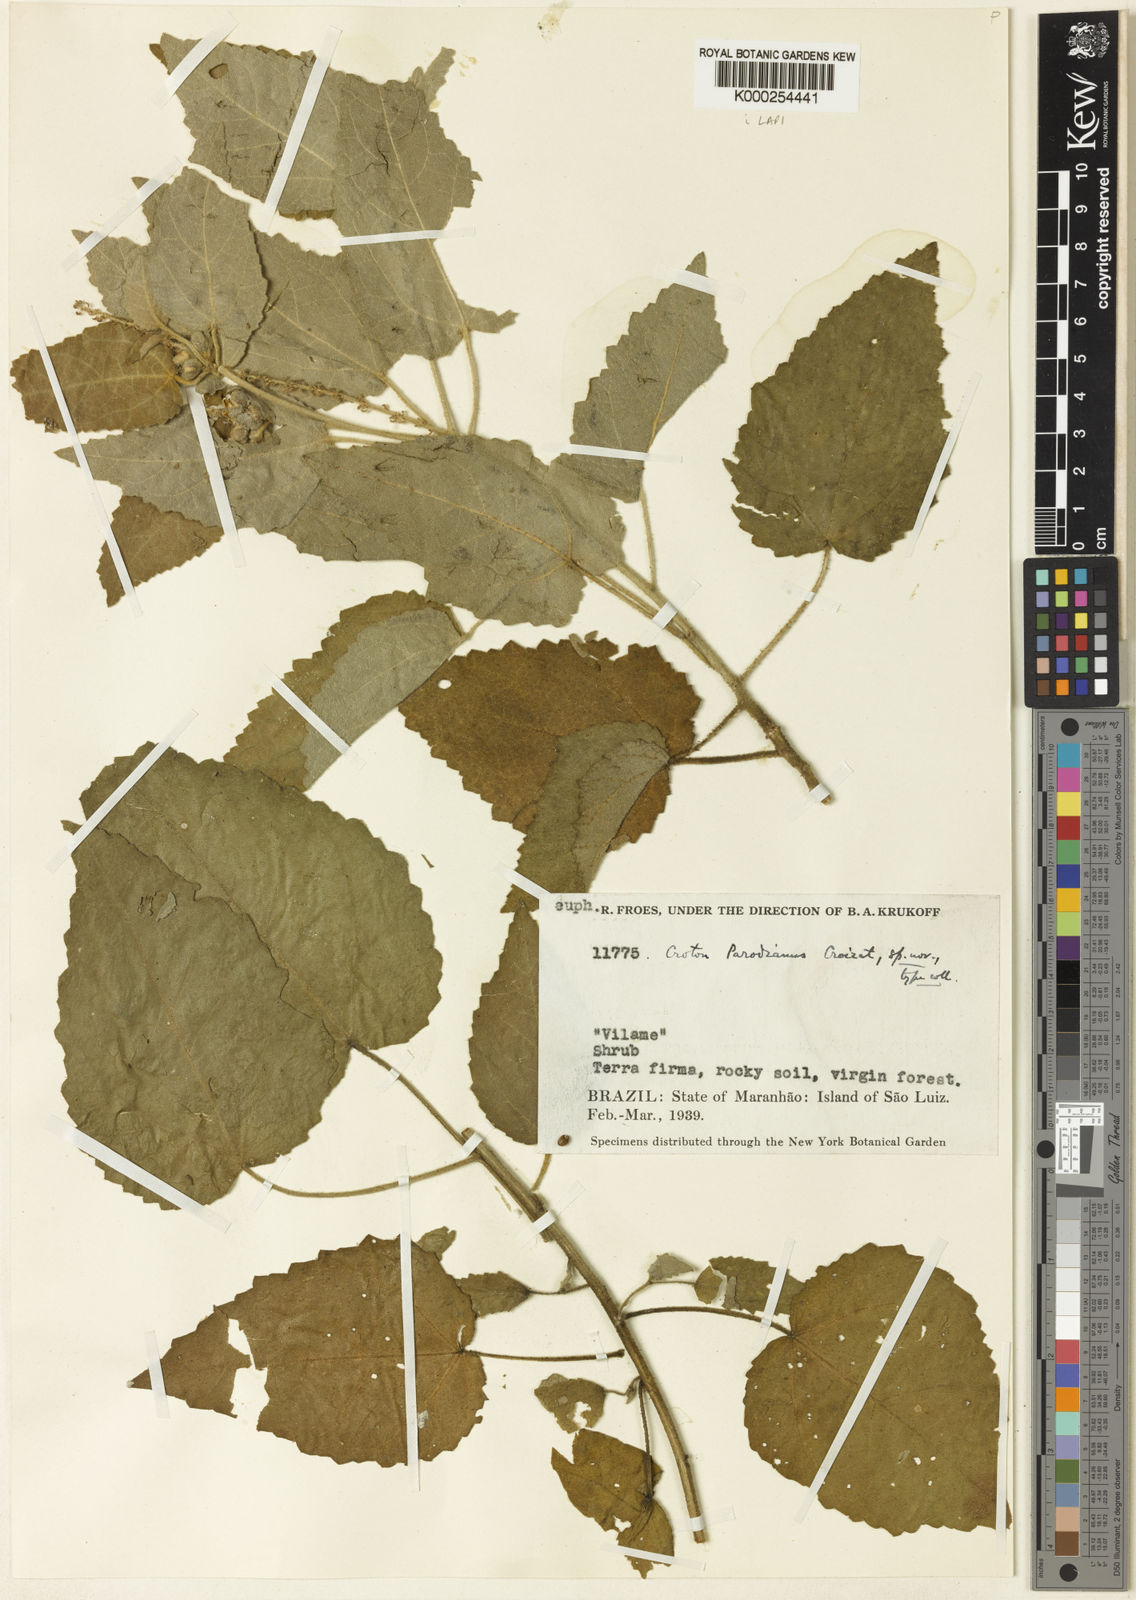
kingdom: Plantae
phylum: Tracheophyta
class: Magnoliopsida
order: Malpighiales
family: Euphorbiaceae
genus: Croton
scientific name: Croton parodianus
